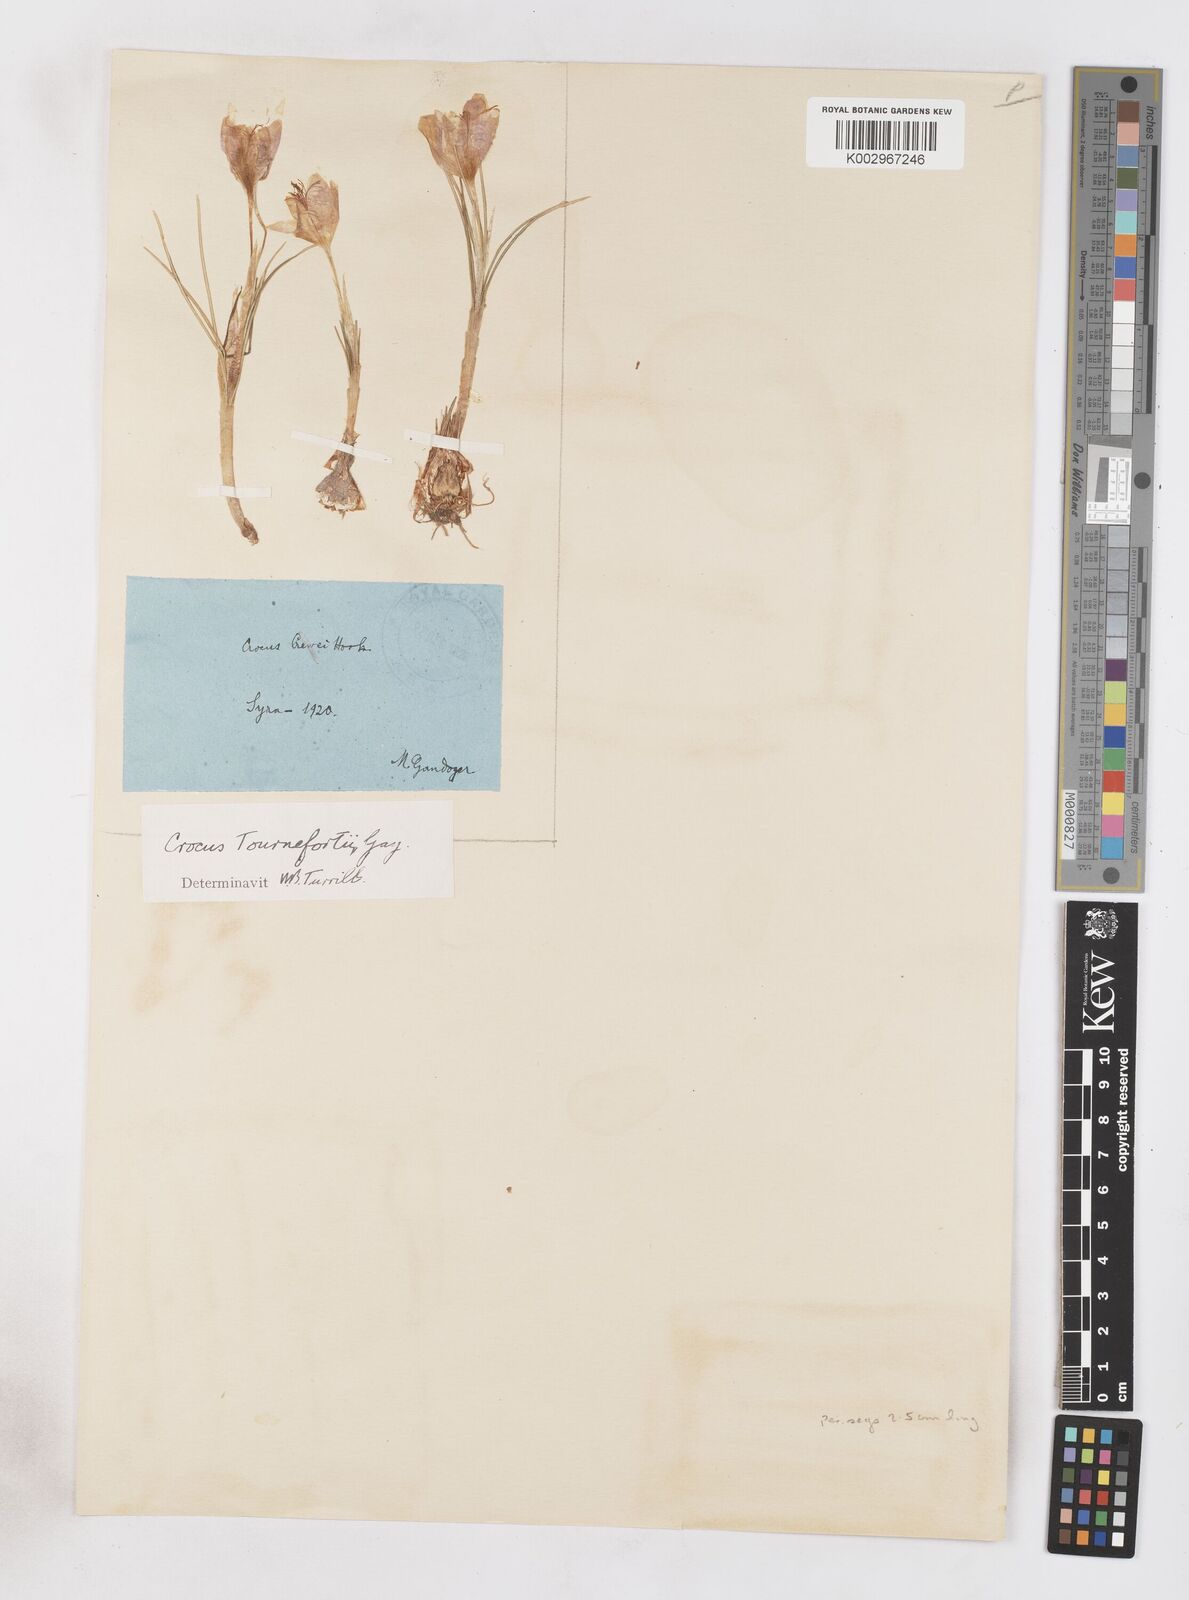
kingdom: Plantae
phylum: Tracheophyta
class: Liliopsida
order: Asparagales
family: Iridaceae
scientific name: Iridaceae
